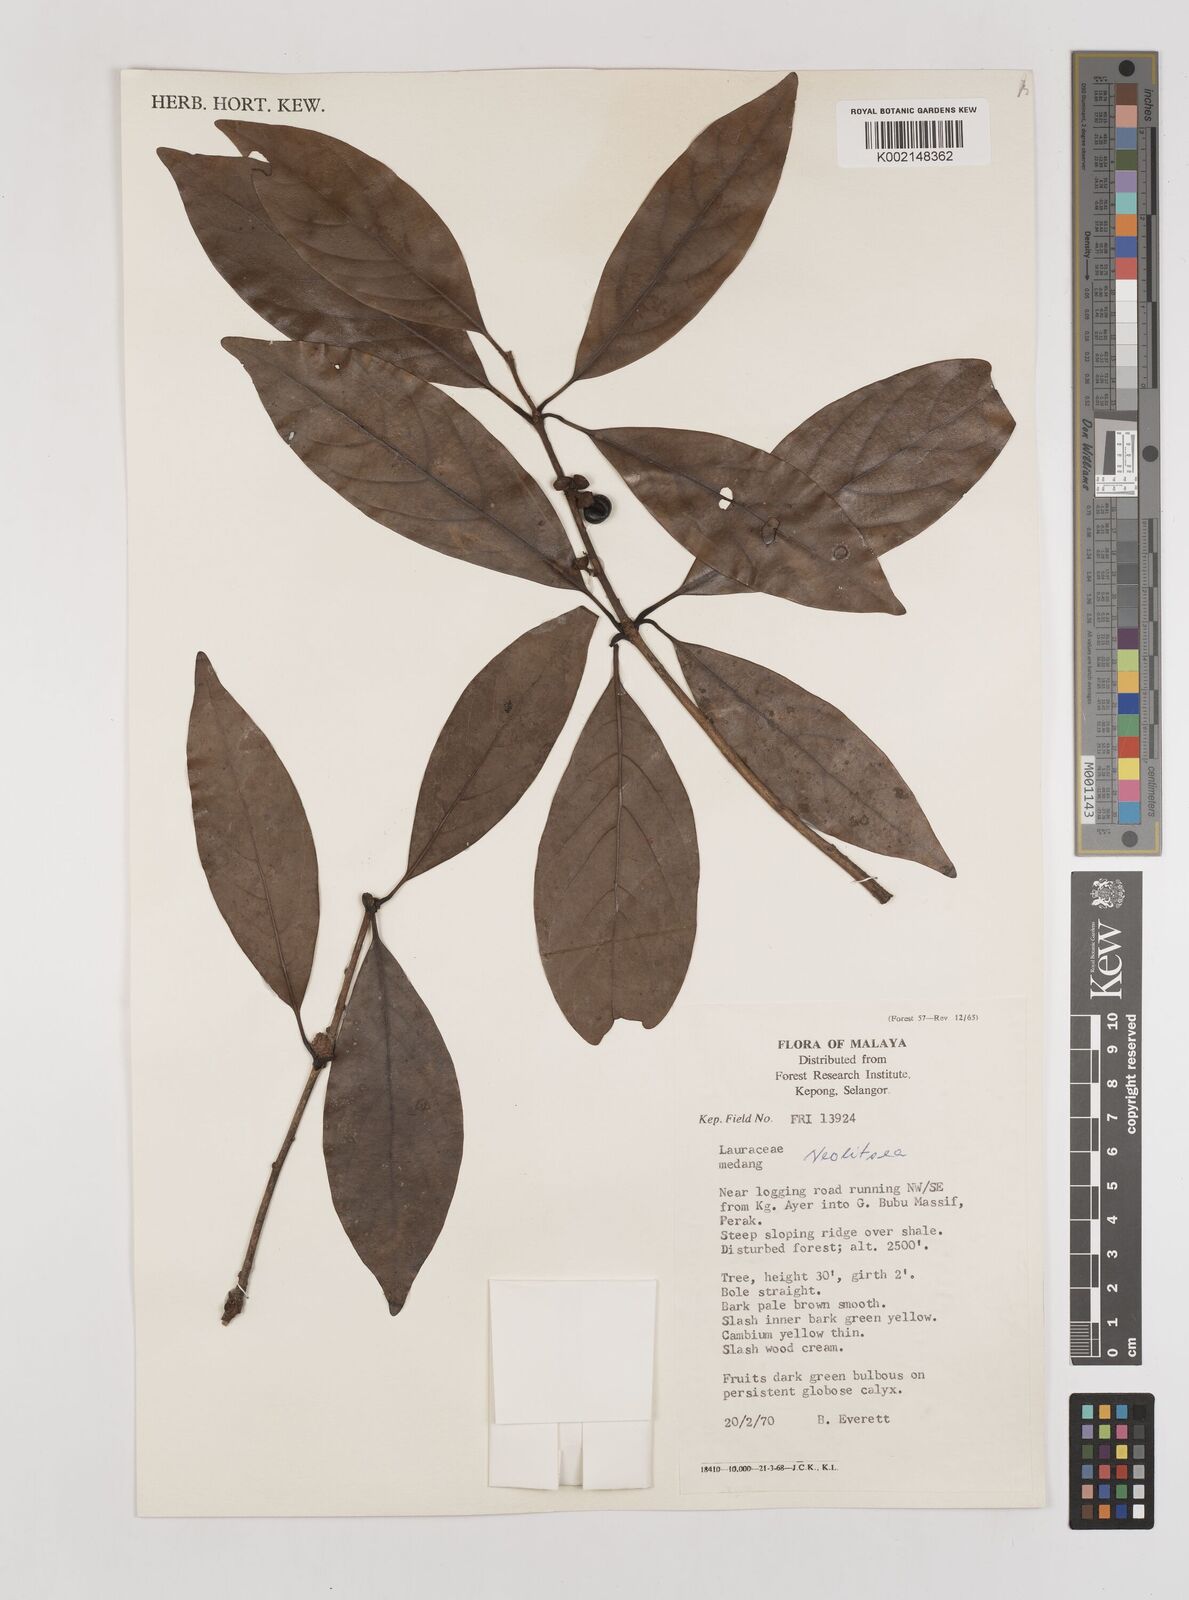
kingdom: Plantae
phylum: Tracheophyta
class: Magnoliopsida
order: Laurales
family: Lauraceae
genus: Neolitsea
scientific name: Neolitsea
